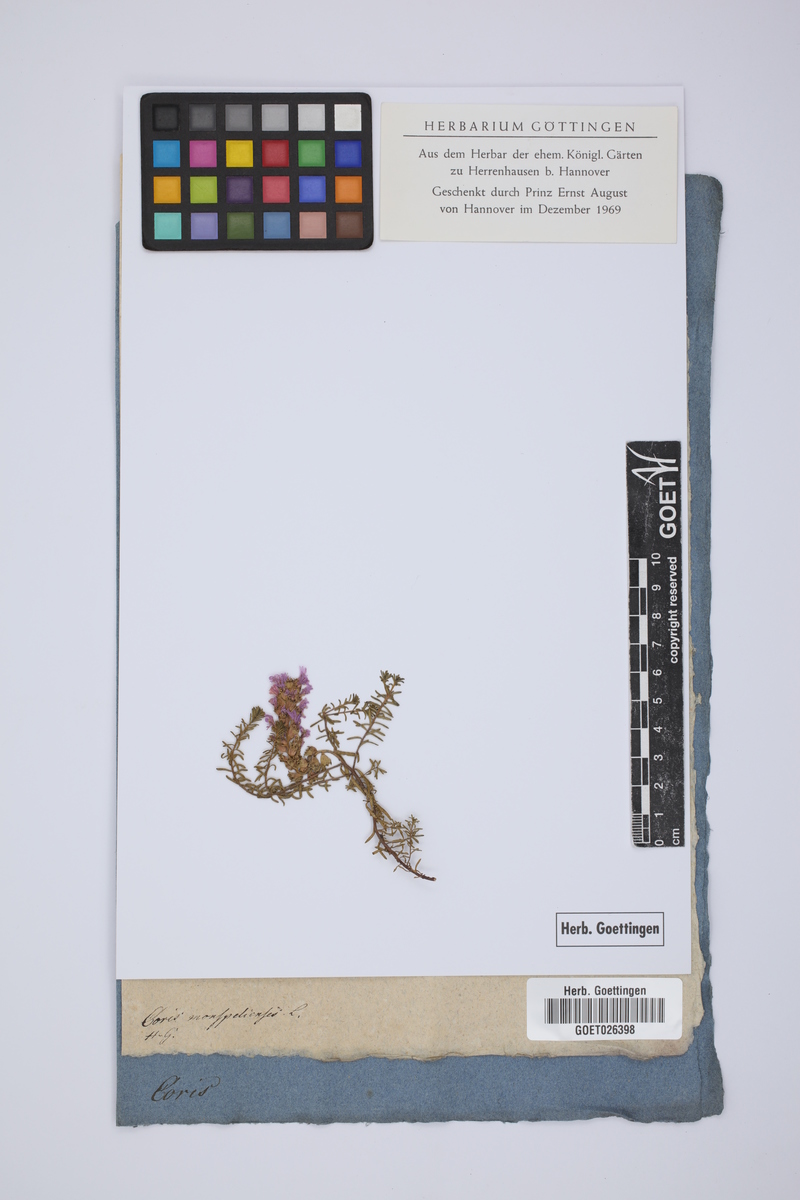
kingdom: Plantae
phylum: Tracheophyta
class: Magnoliopsida
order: Ericales
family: Primulaceae
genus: Coris
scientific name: Coris monspeliensis
